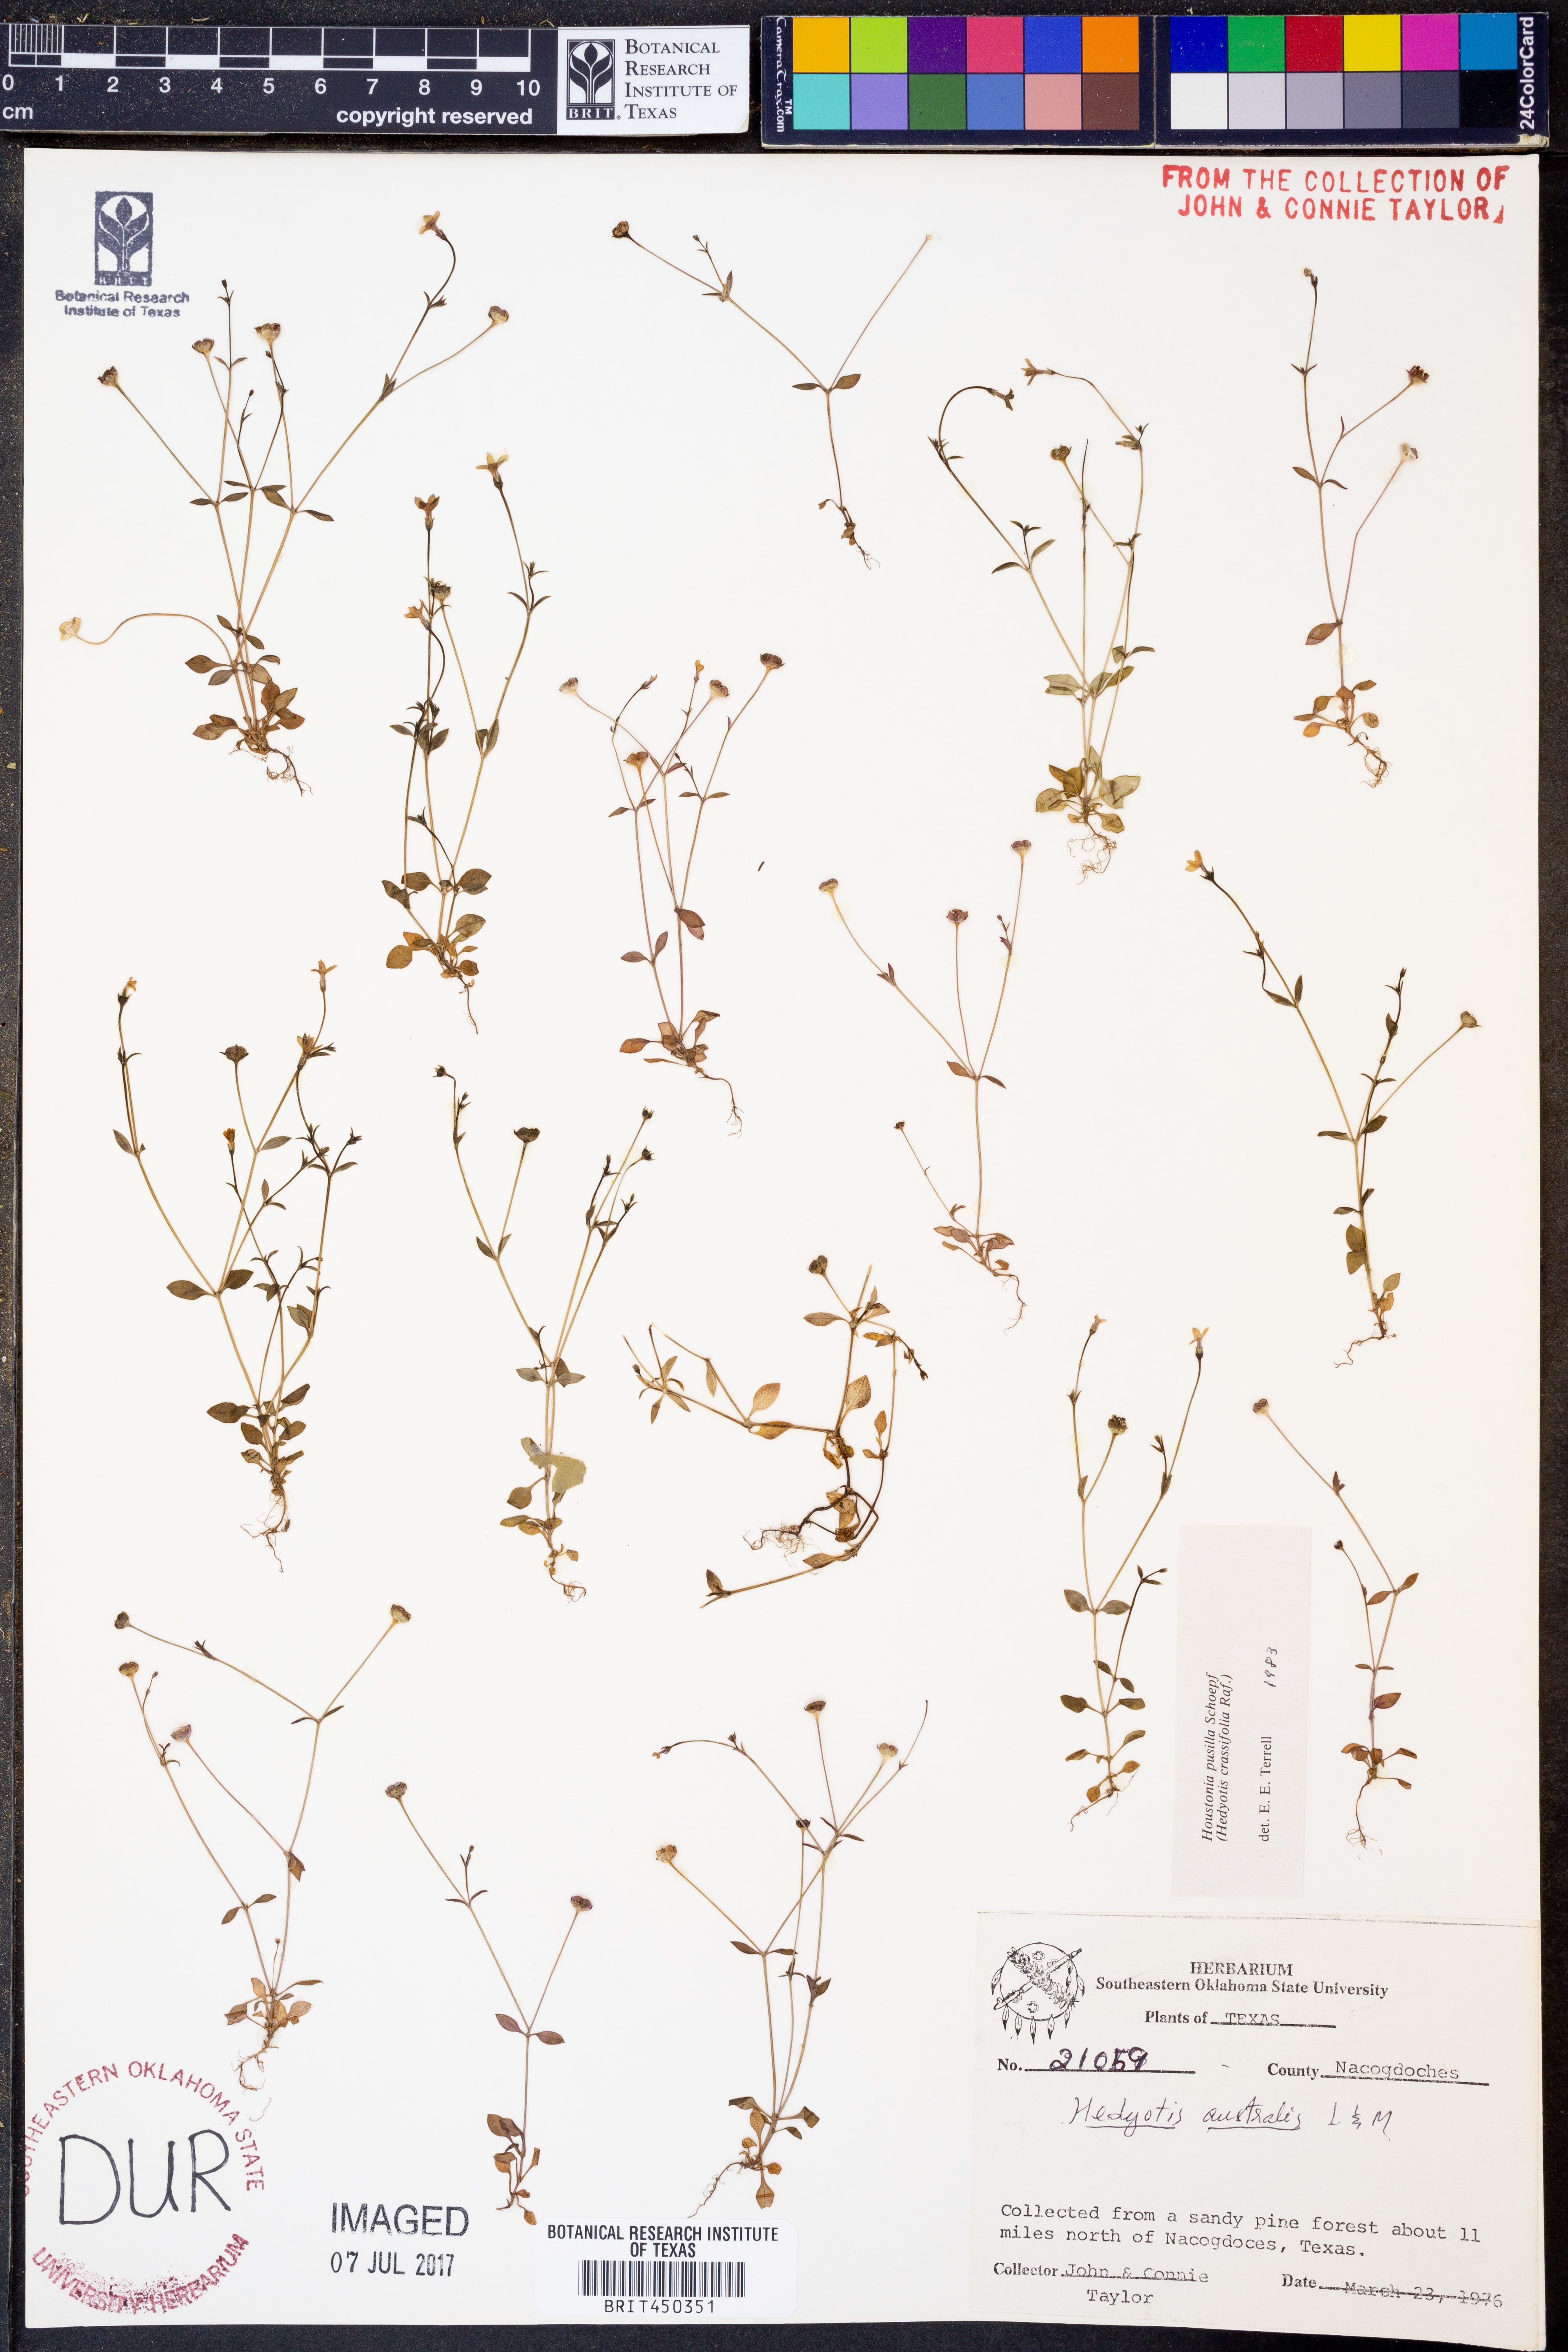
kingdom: Plantae
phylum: Tracheophyta
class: Magnoliopsida
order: Gentianales
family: Rubiaceae
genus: Houstonia
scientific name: Houstonia pusilla
